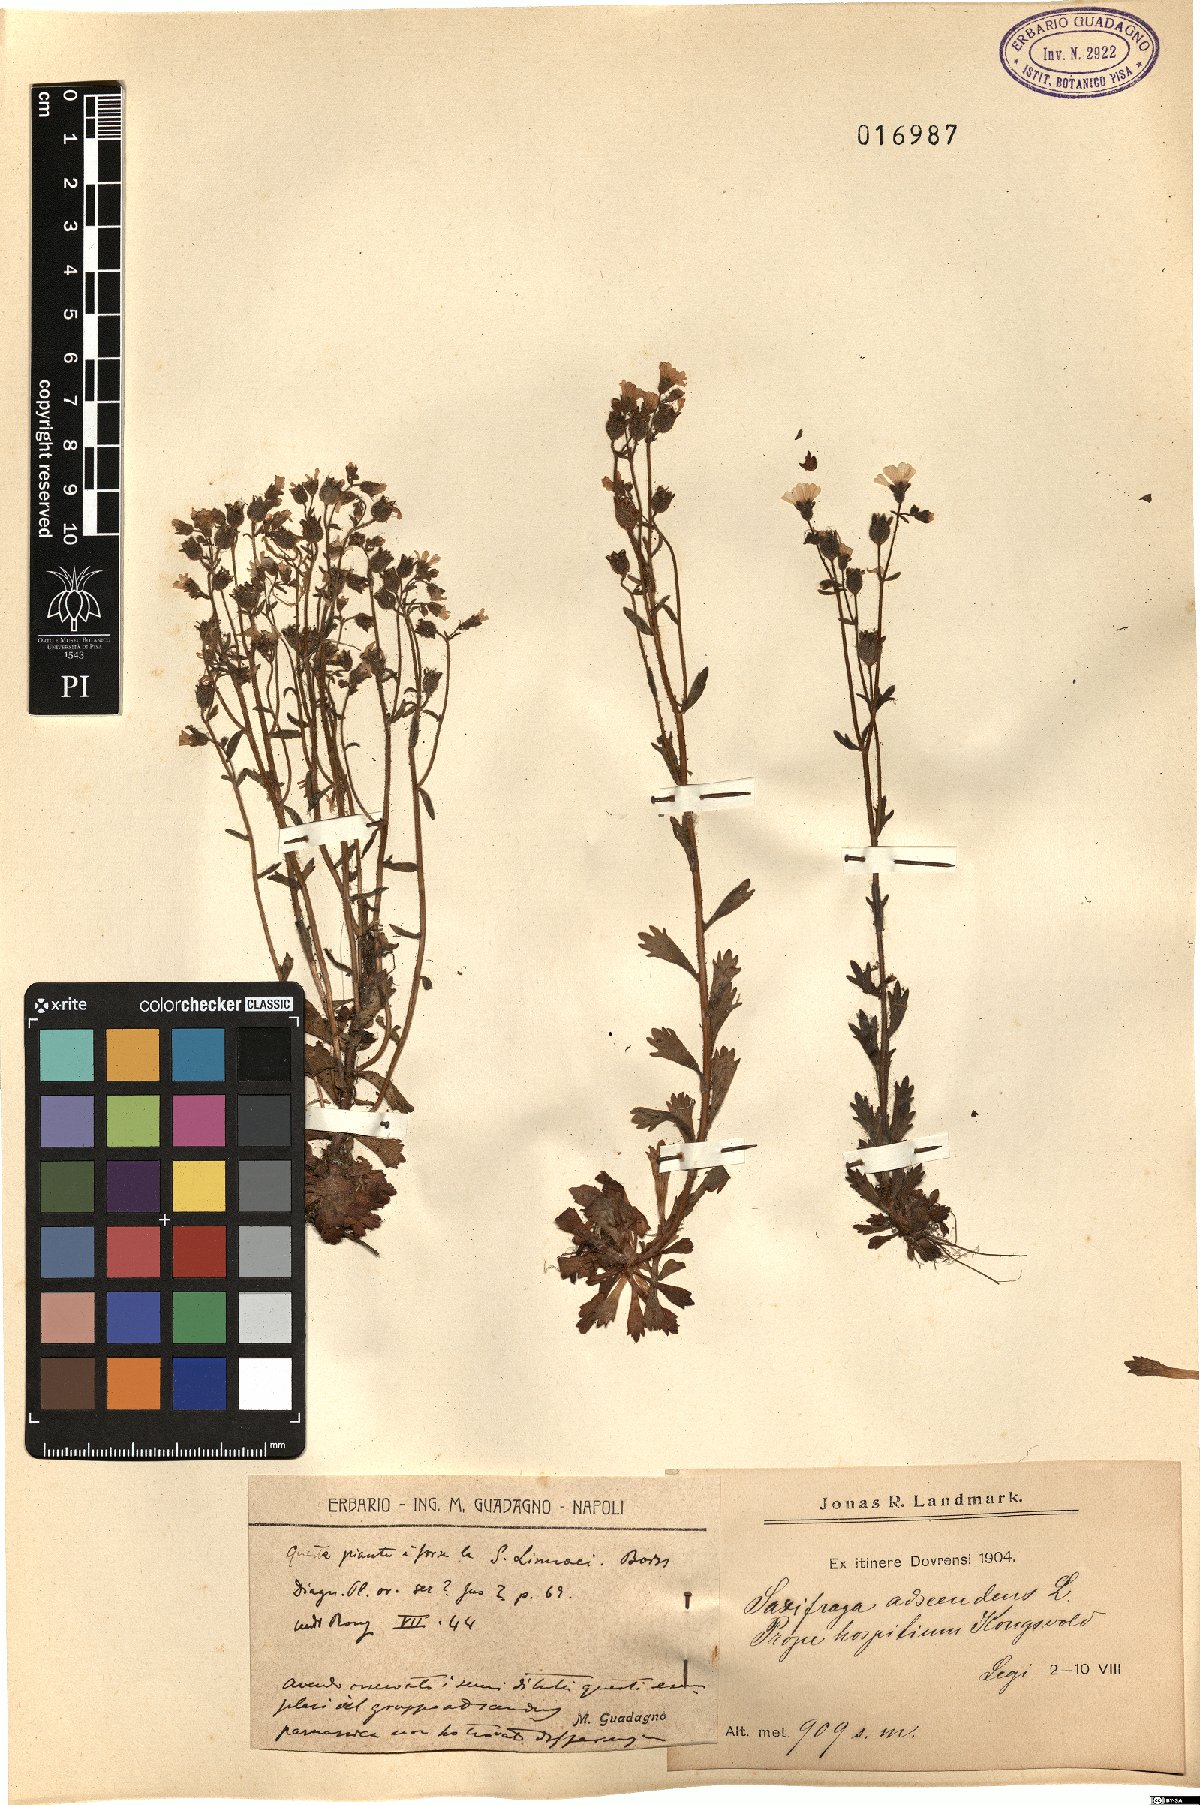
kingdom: Plantae
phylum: Tracheophyta
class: Magnoliopsida
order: Saxifragales
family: Saxifragaceae
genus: Saxifraga
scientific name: Saxifraga adscendens
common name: Ascending saxifrage
